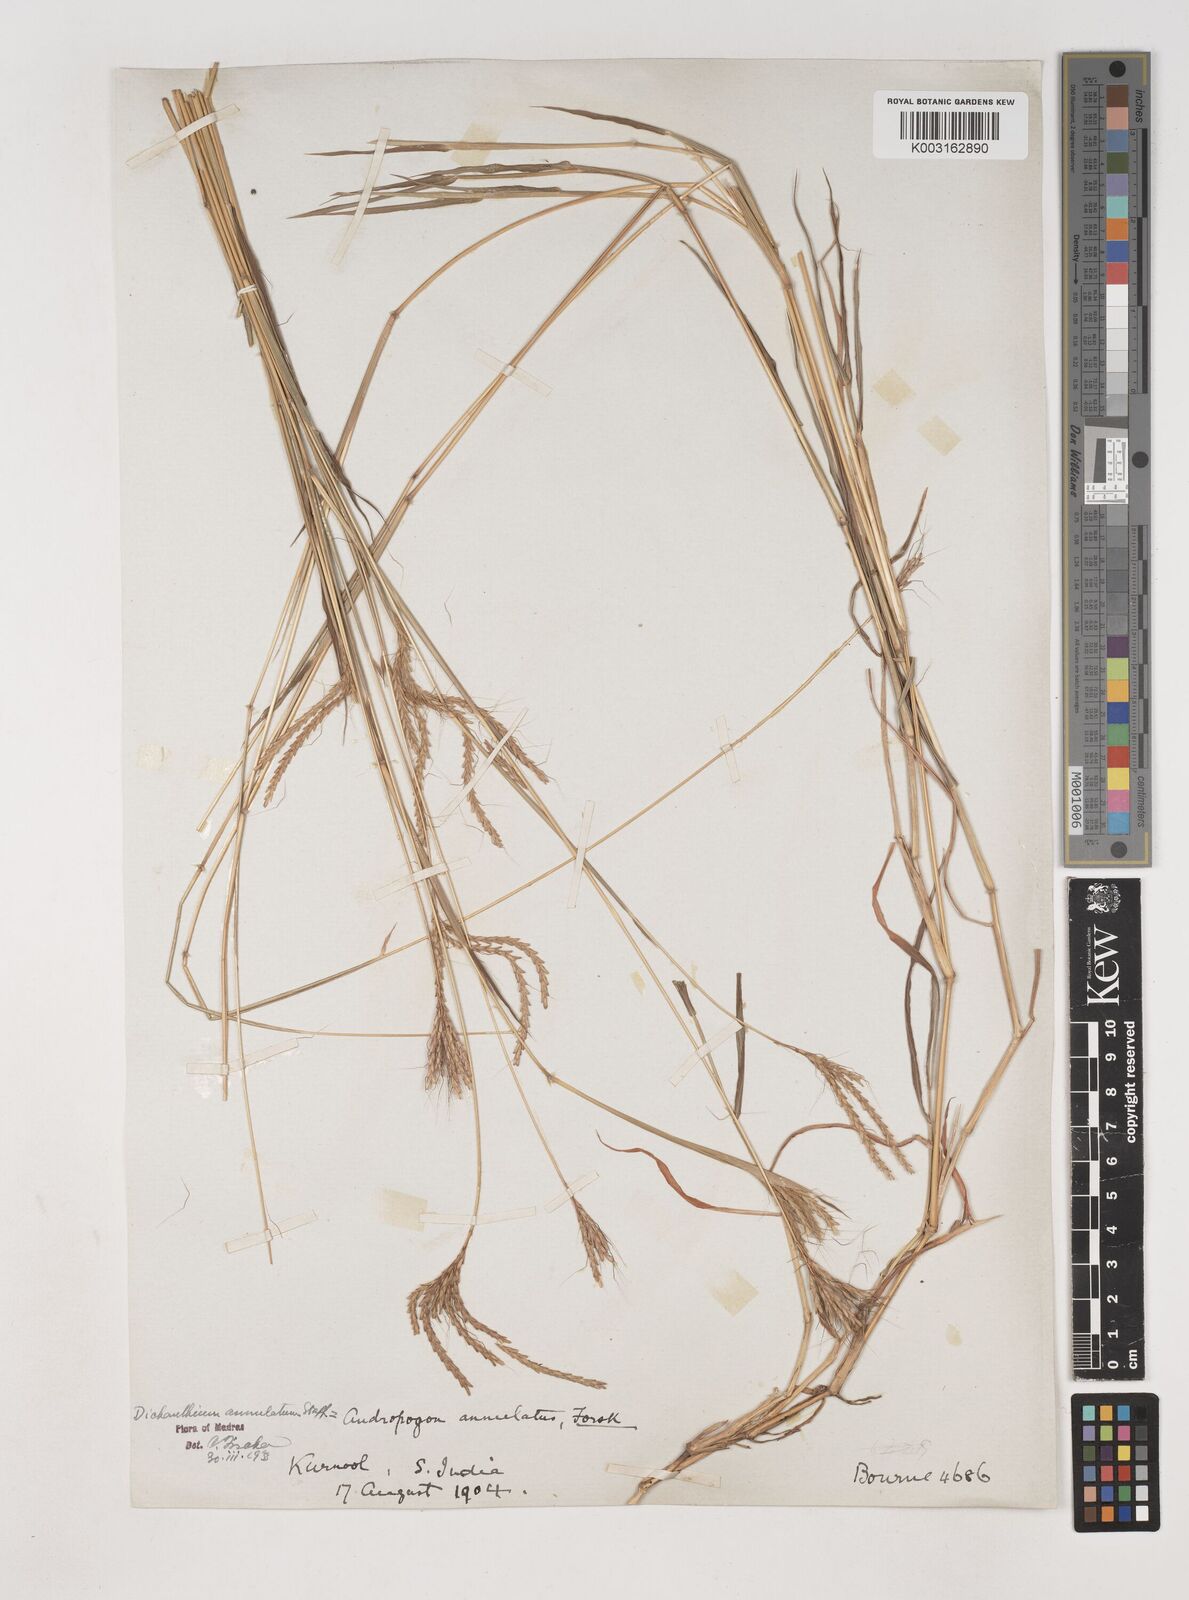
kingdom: Plantae
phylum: Tracheophyta
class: Liliopsida
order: Poales
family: Poaceae
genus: Dichanthium
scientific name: Dichanthium annulatum
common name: Kleberg's bluestem
